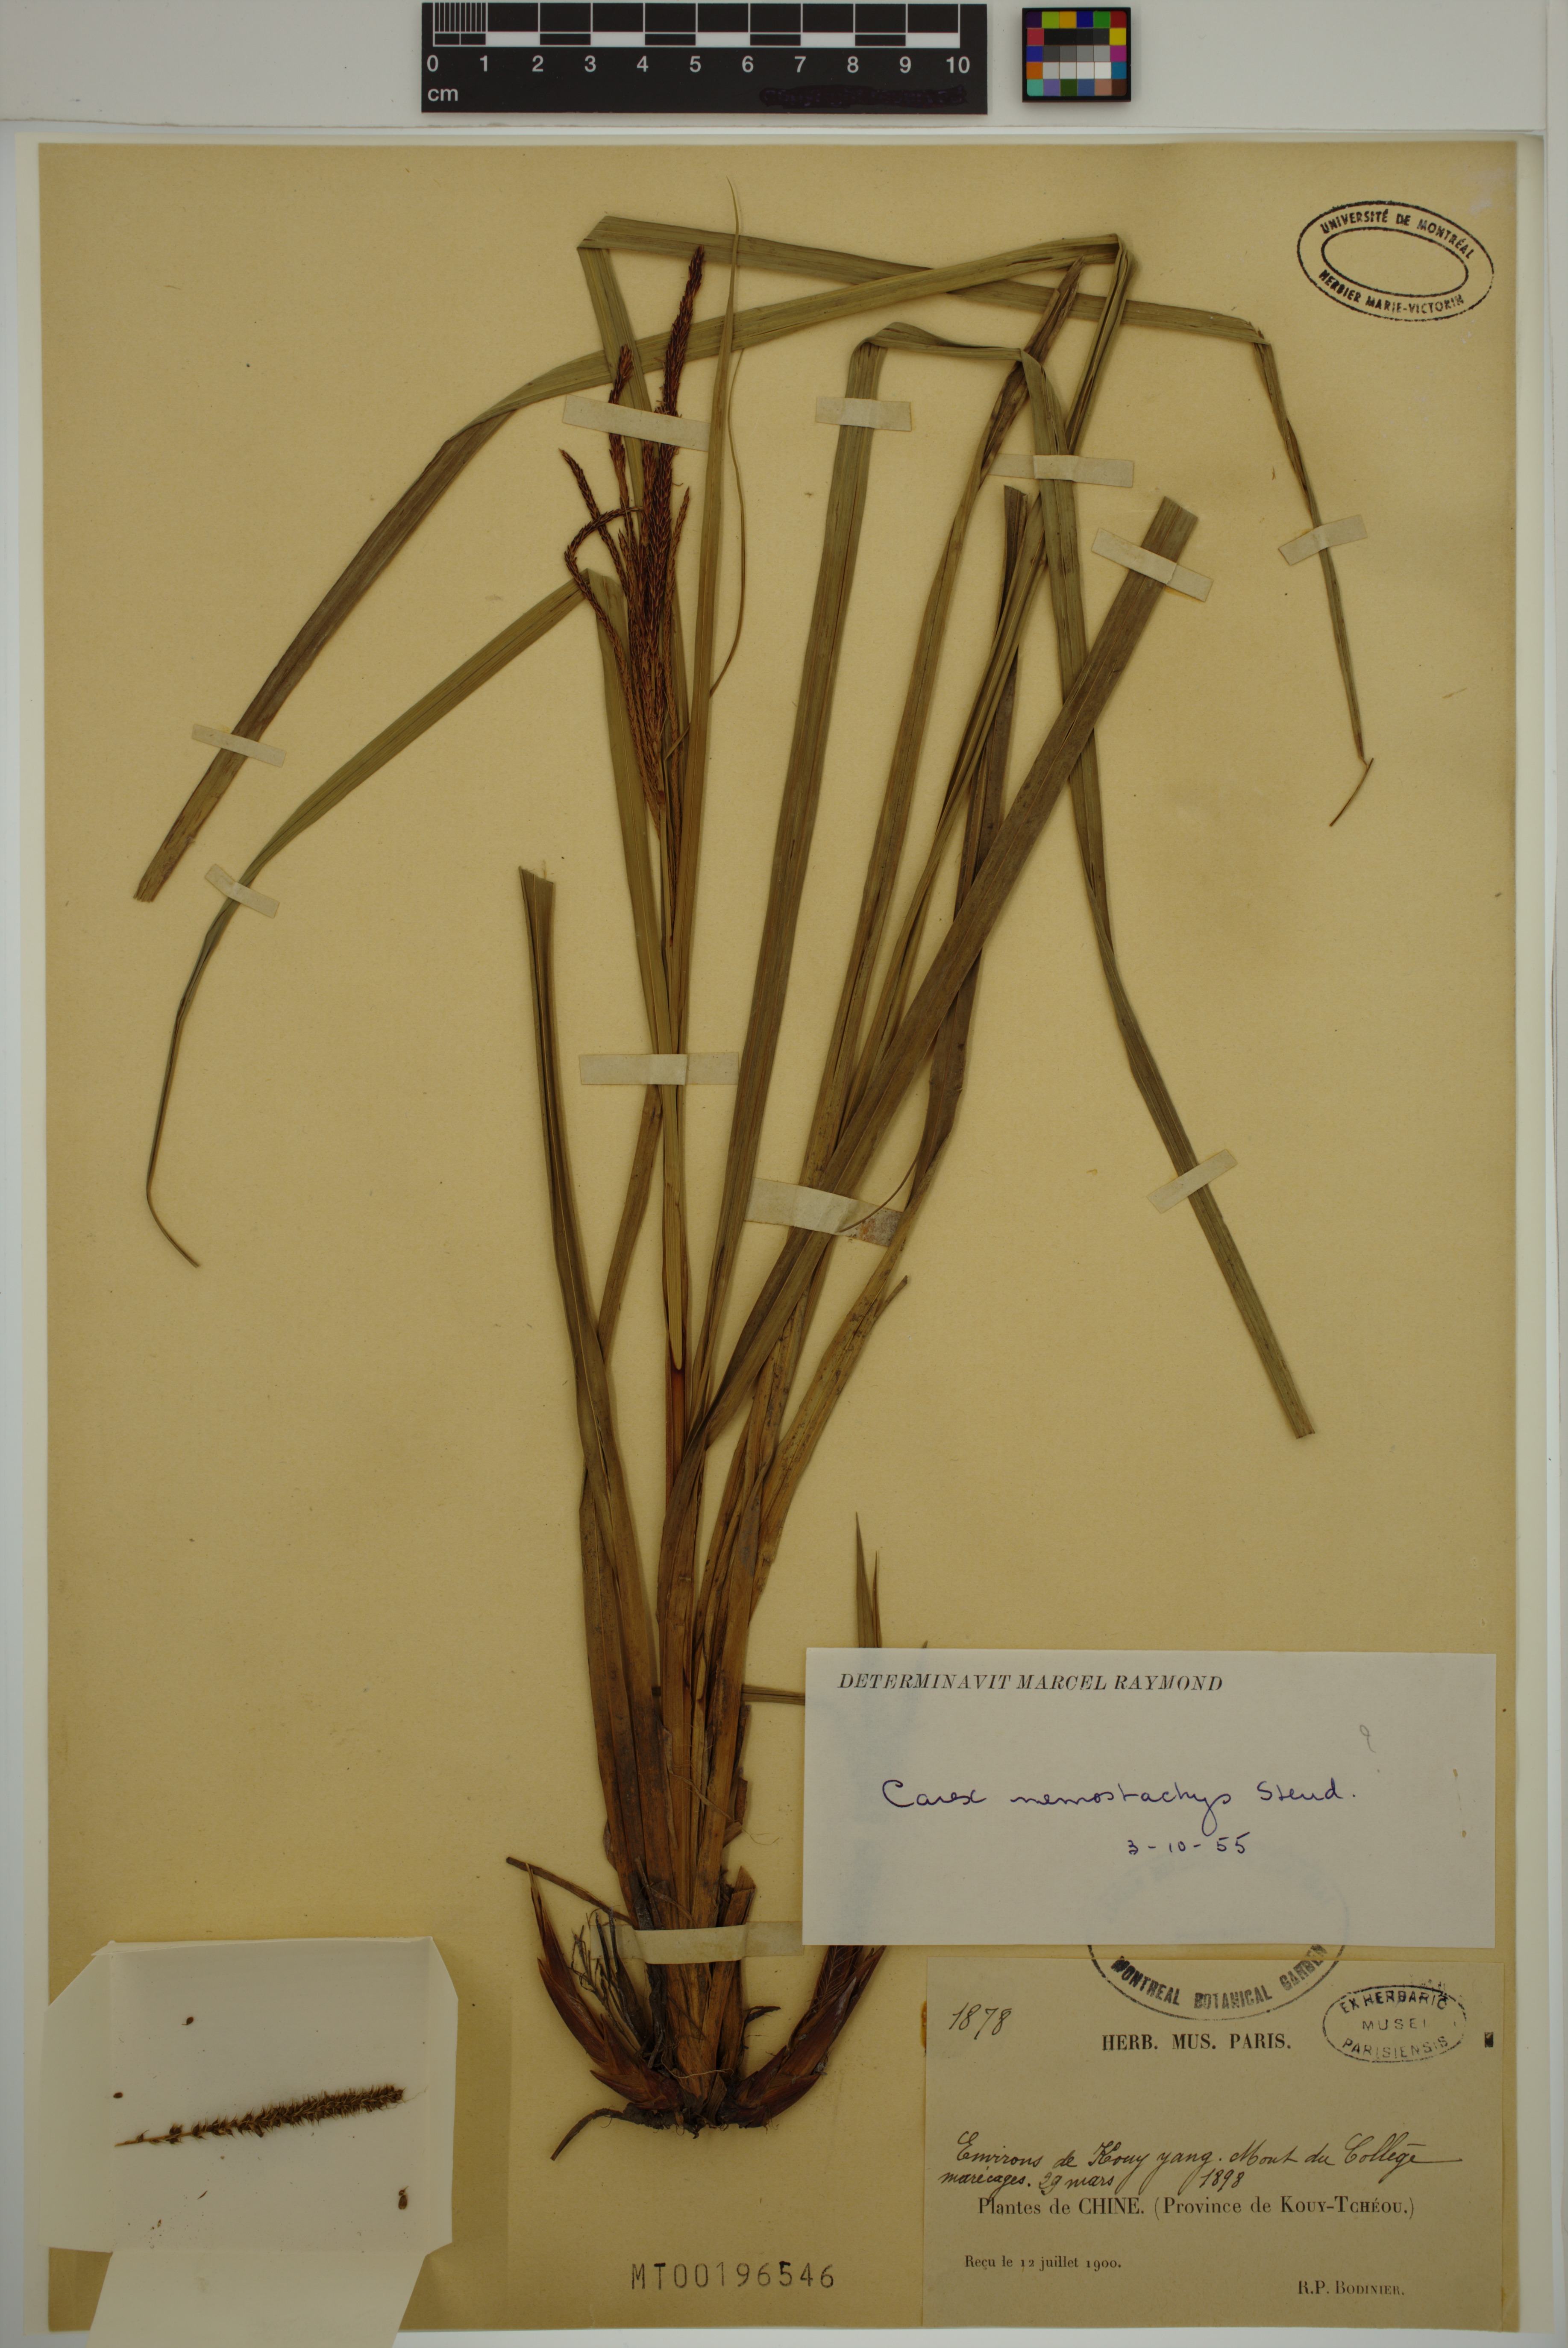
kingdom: Plantae
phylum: Tracheophyta
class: Liliopsida
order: Poales
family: Cyperaceae
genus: Carex
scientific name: Carex nemostachys
